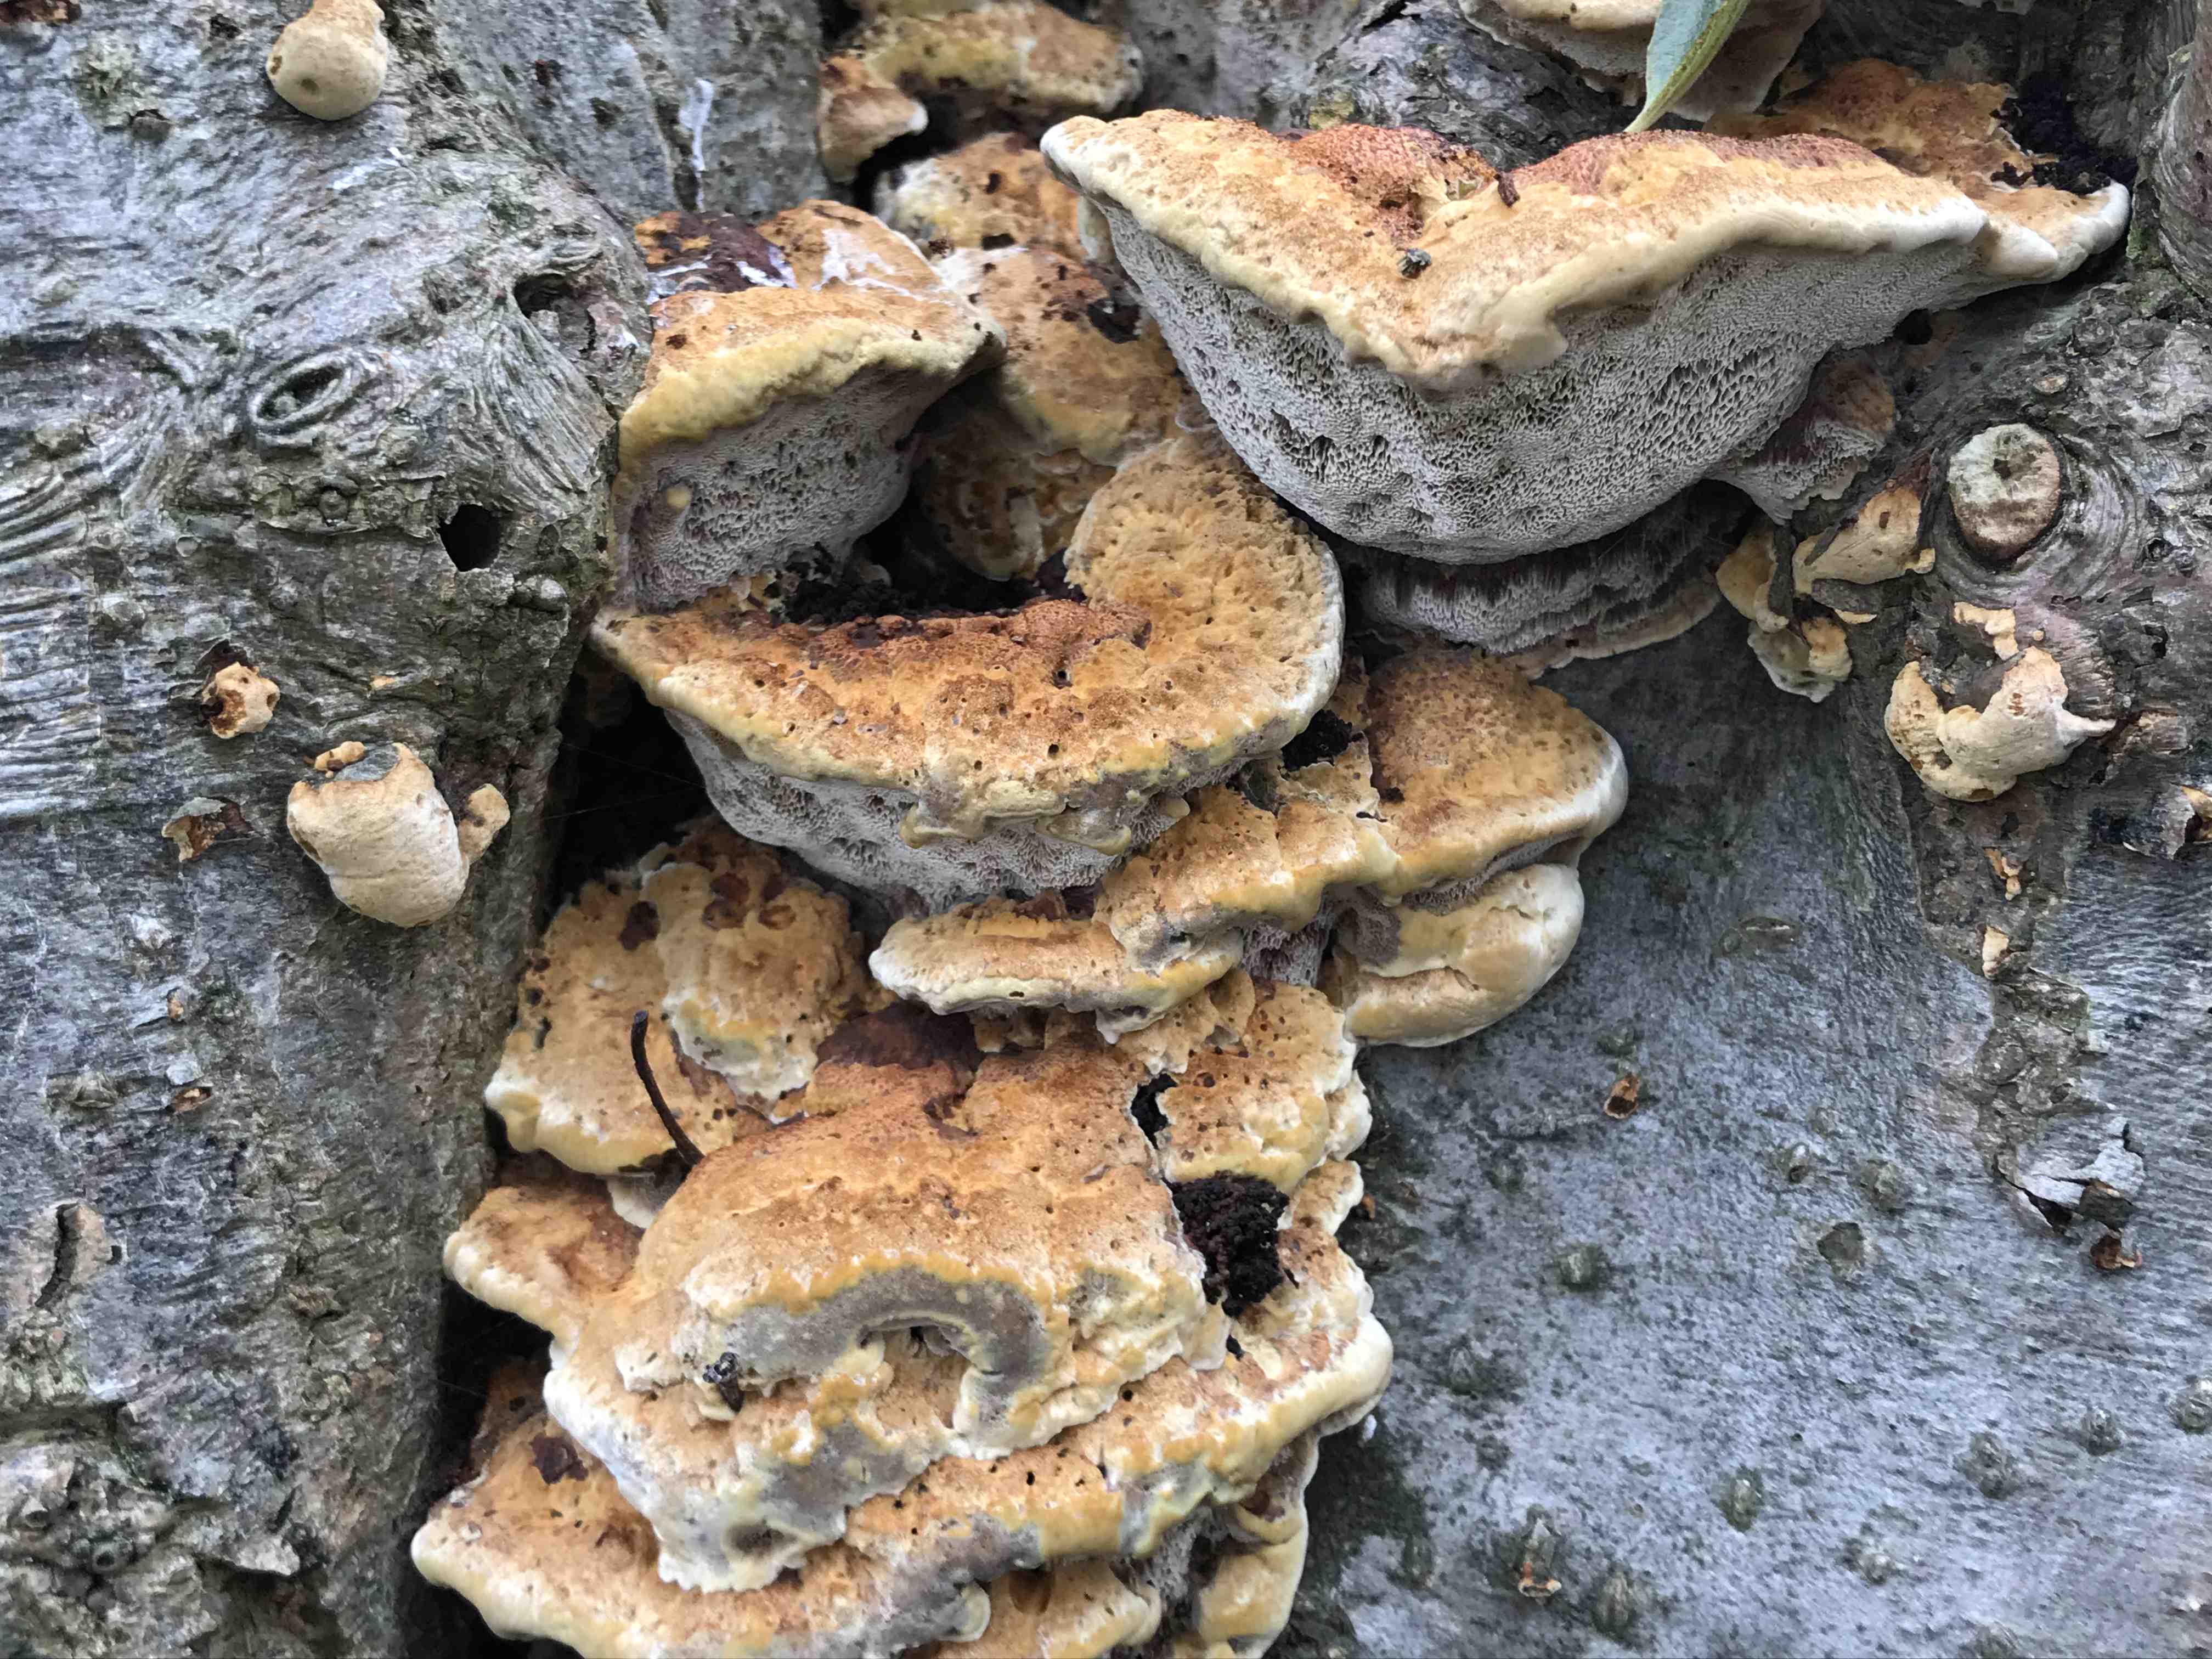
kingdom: Fungi
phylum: Basidiomycota
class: Agaricomycetes
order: Hymenochaetales
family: Hymenochaetaceae
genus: Xanthoporia
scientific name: Xanthoporia radiata
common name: elle-spejlporesvamp
